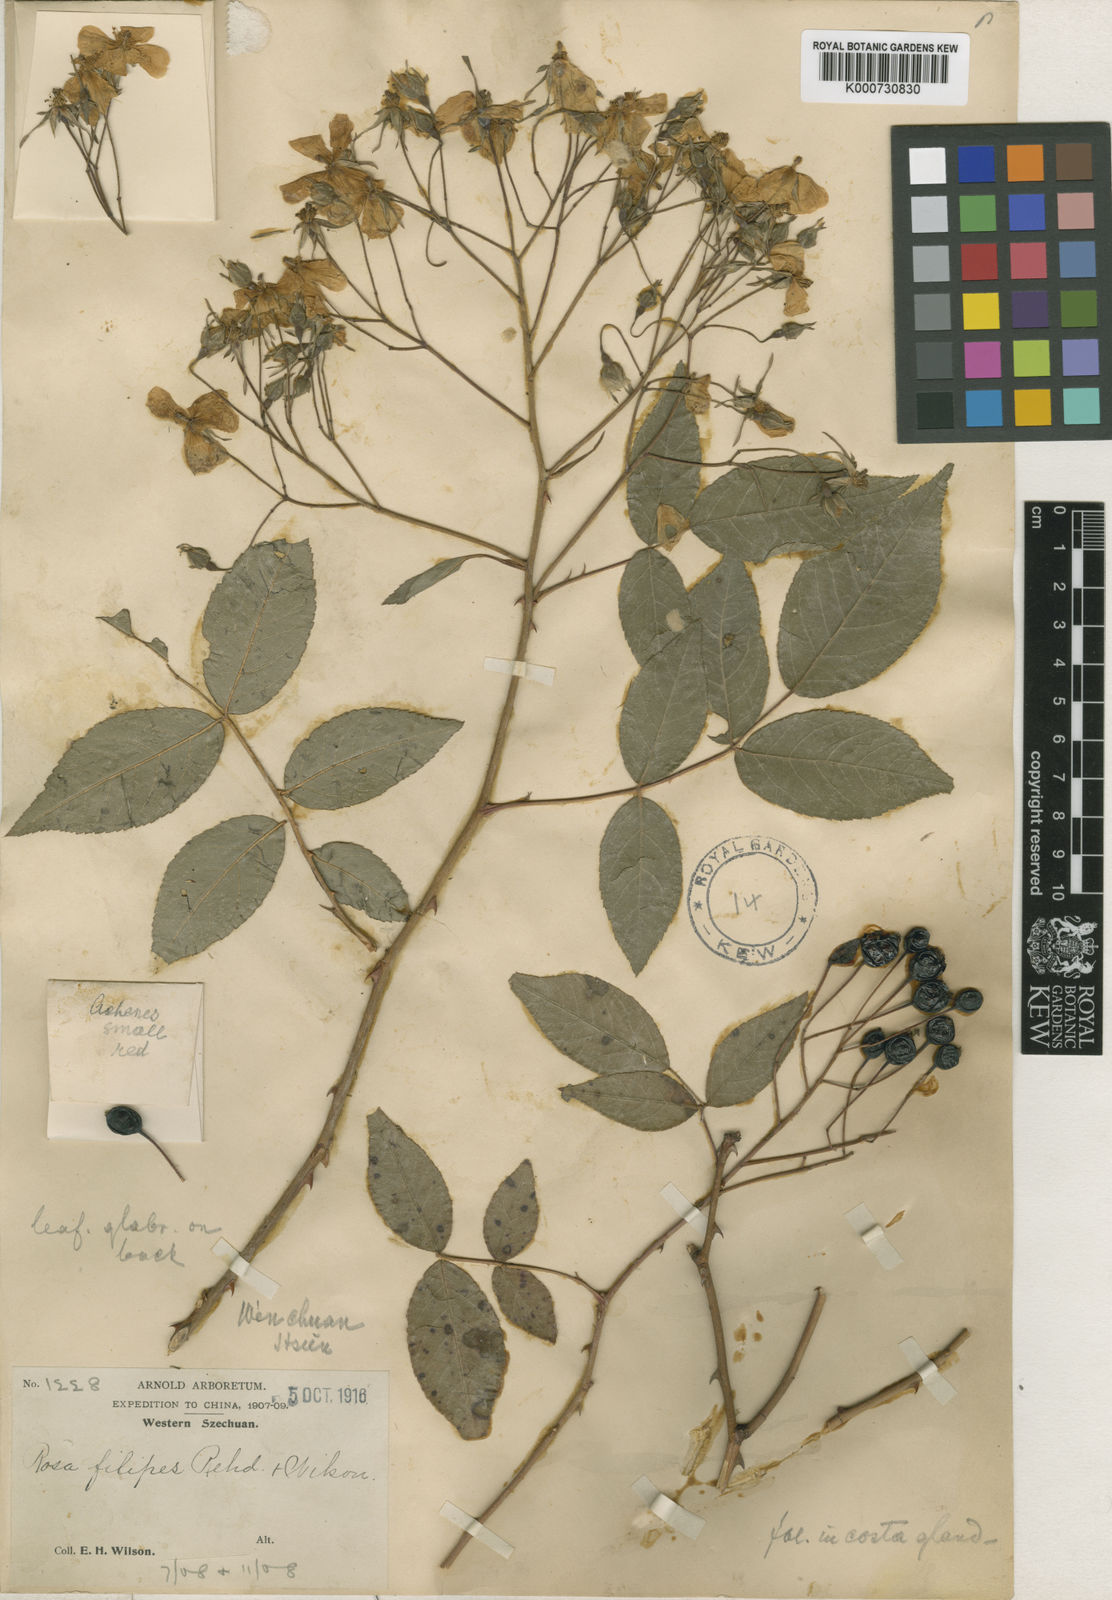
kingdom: Plantae
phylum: Tracheophyta
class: Magnoliopsida
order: Rosales
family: Rosaceae
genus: Rosa
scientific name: Rosa filipes
